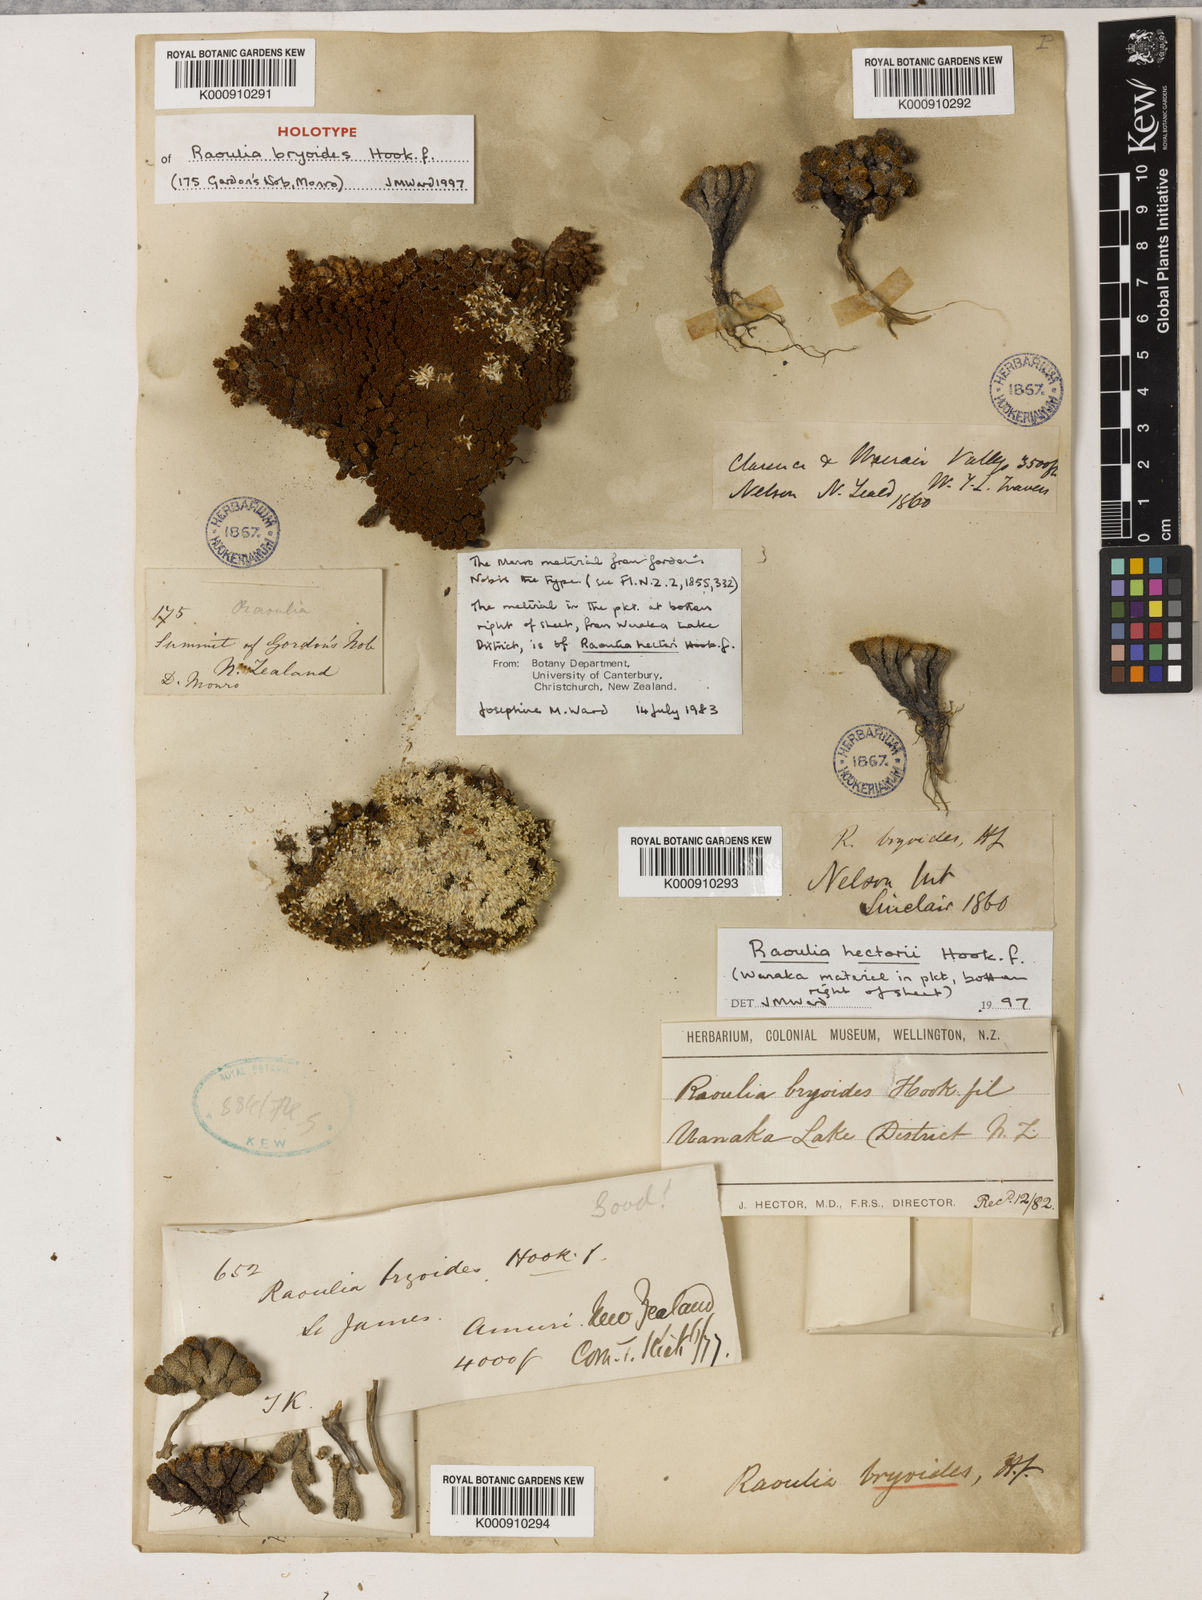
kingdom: Plantae
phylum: Tracheophyta
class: Magnoliopsida
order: Asterales
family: Asteraceae
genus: Raoulia
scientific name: Raoulia bryoides
